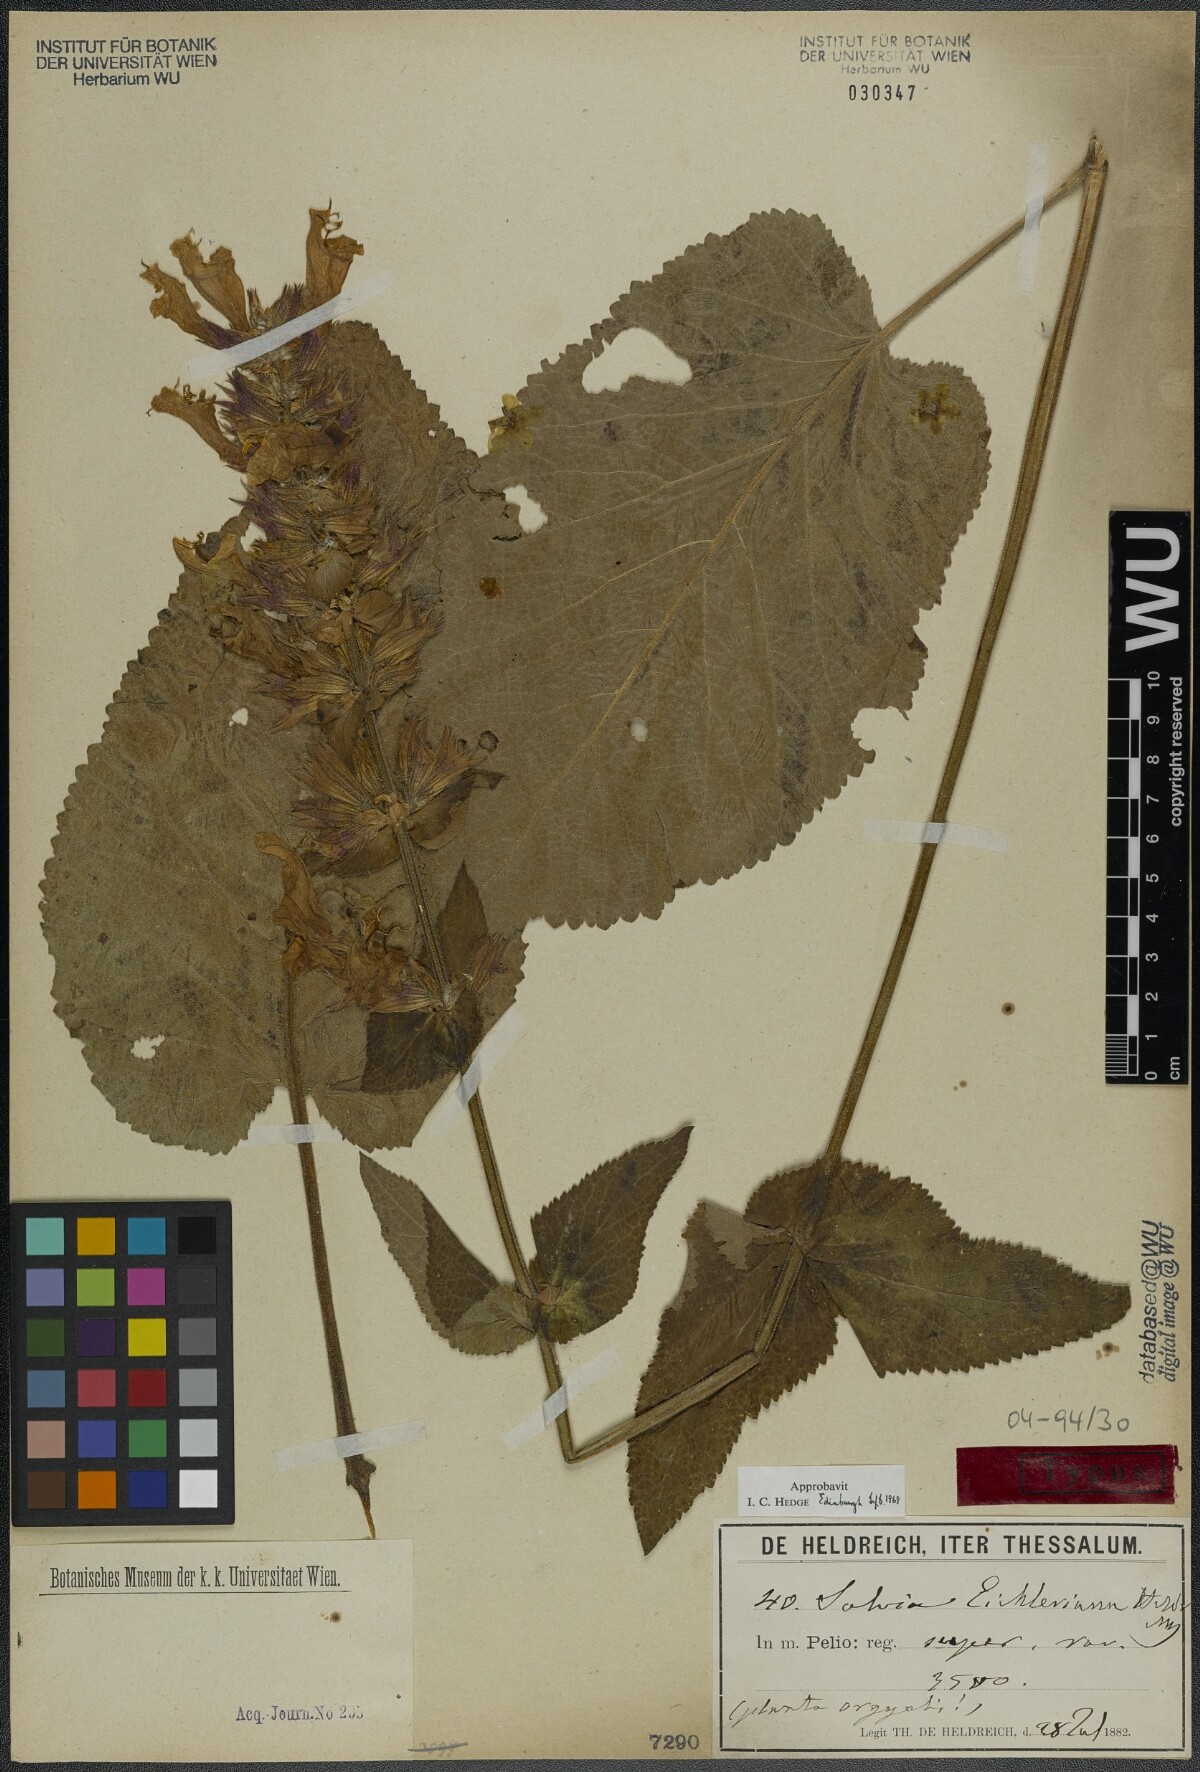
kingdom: Plantae
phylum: Tracheophyta
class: Magnoliopsida
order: Lamiales
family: Lamiaceae
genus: Salvia
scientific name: Salvia eichleriana
